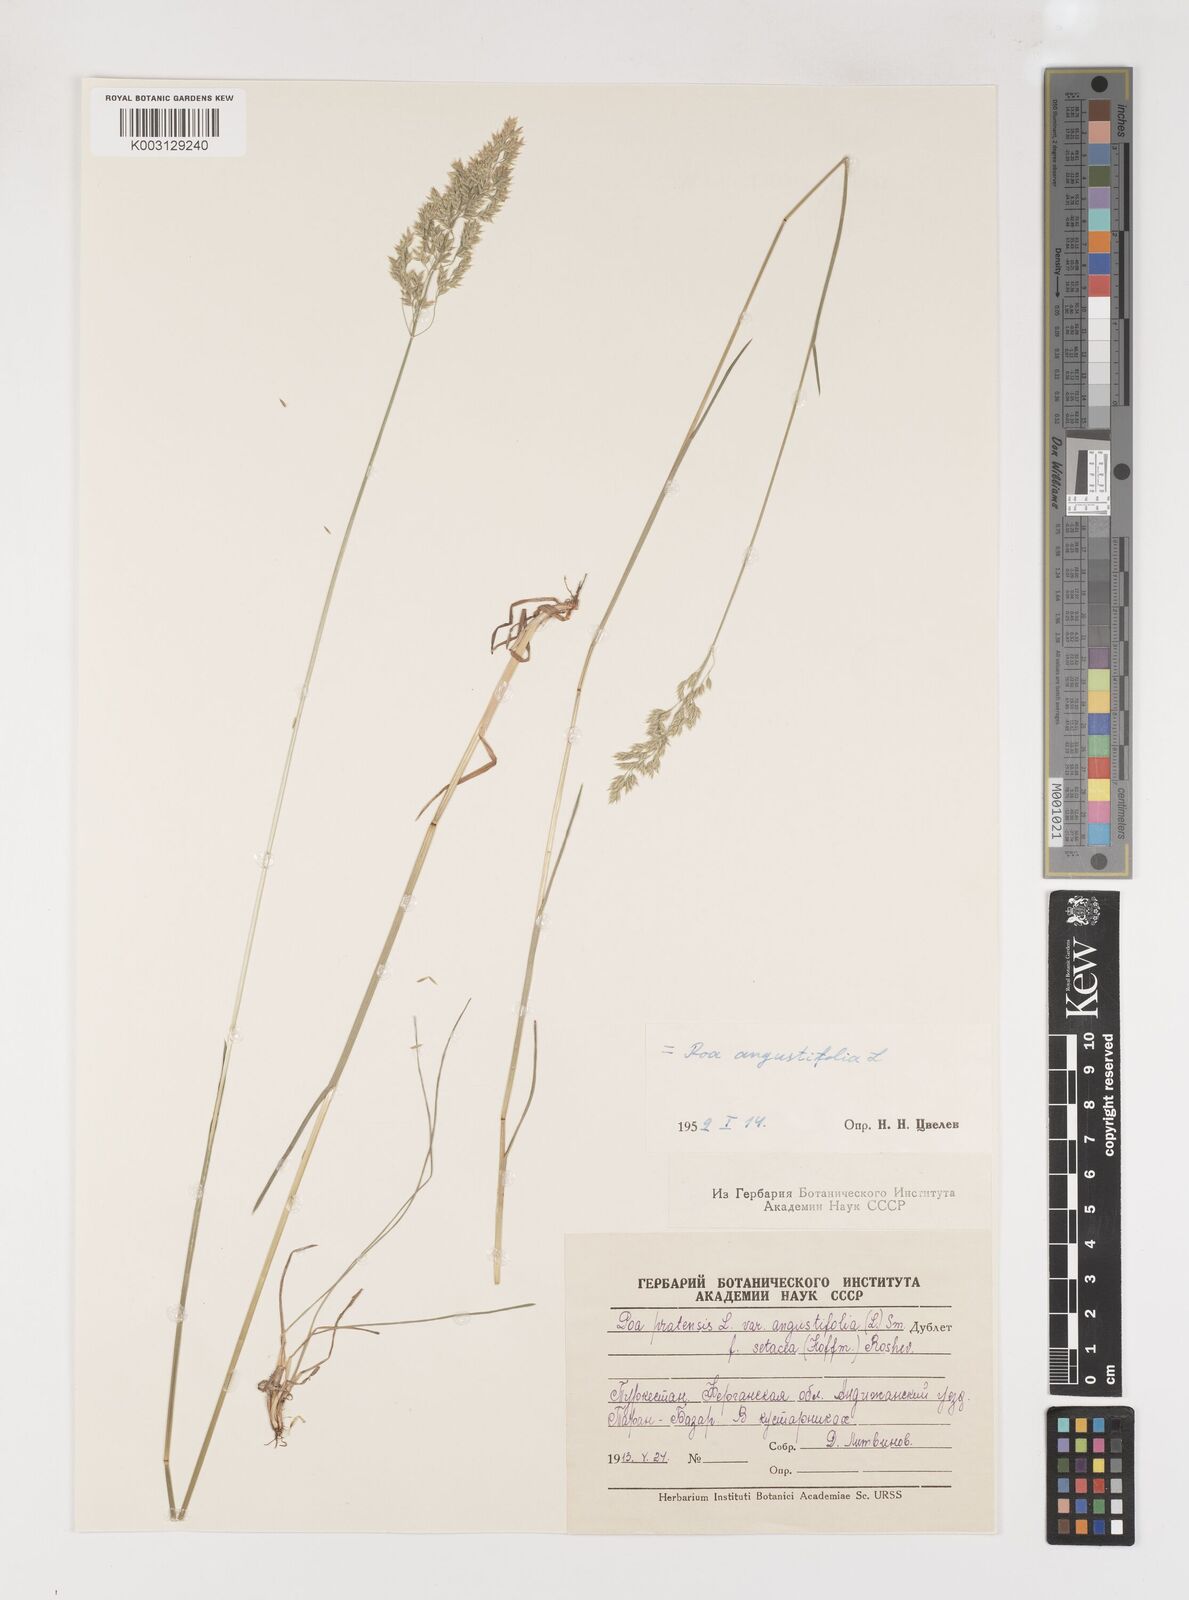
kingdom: Plantae
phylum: Tracheophyta
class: Liliopsida
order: Poales
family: Poaceae
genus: Poa
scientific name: Poa angustifolia
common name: Narrow-leaved meadow-grass
